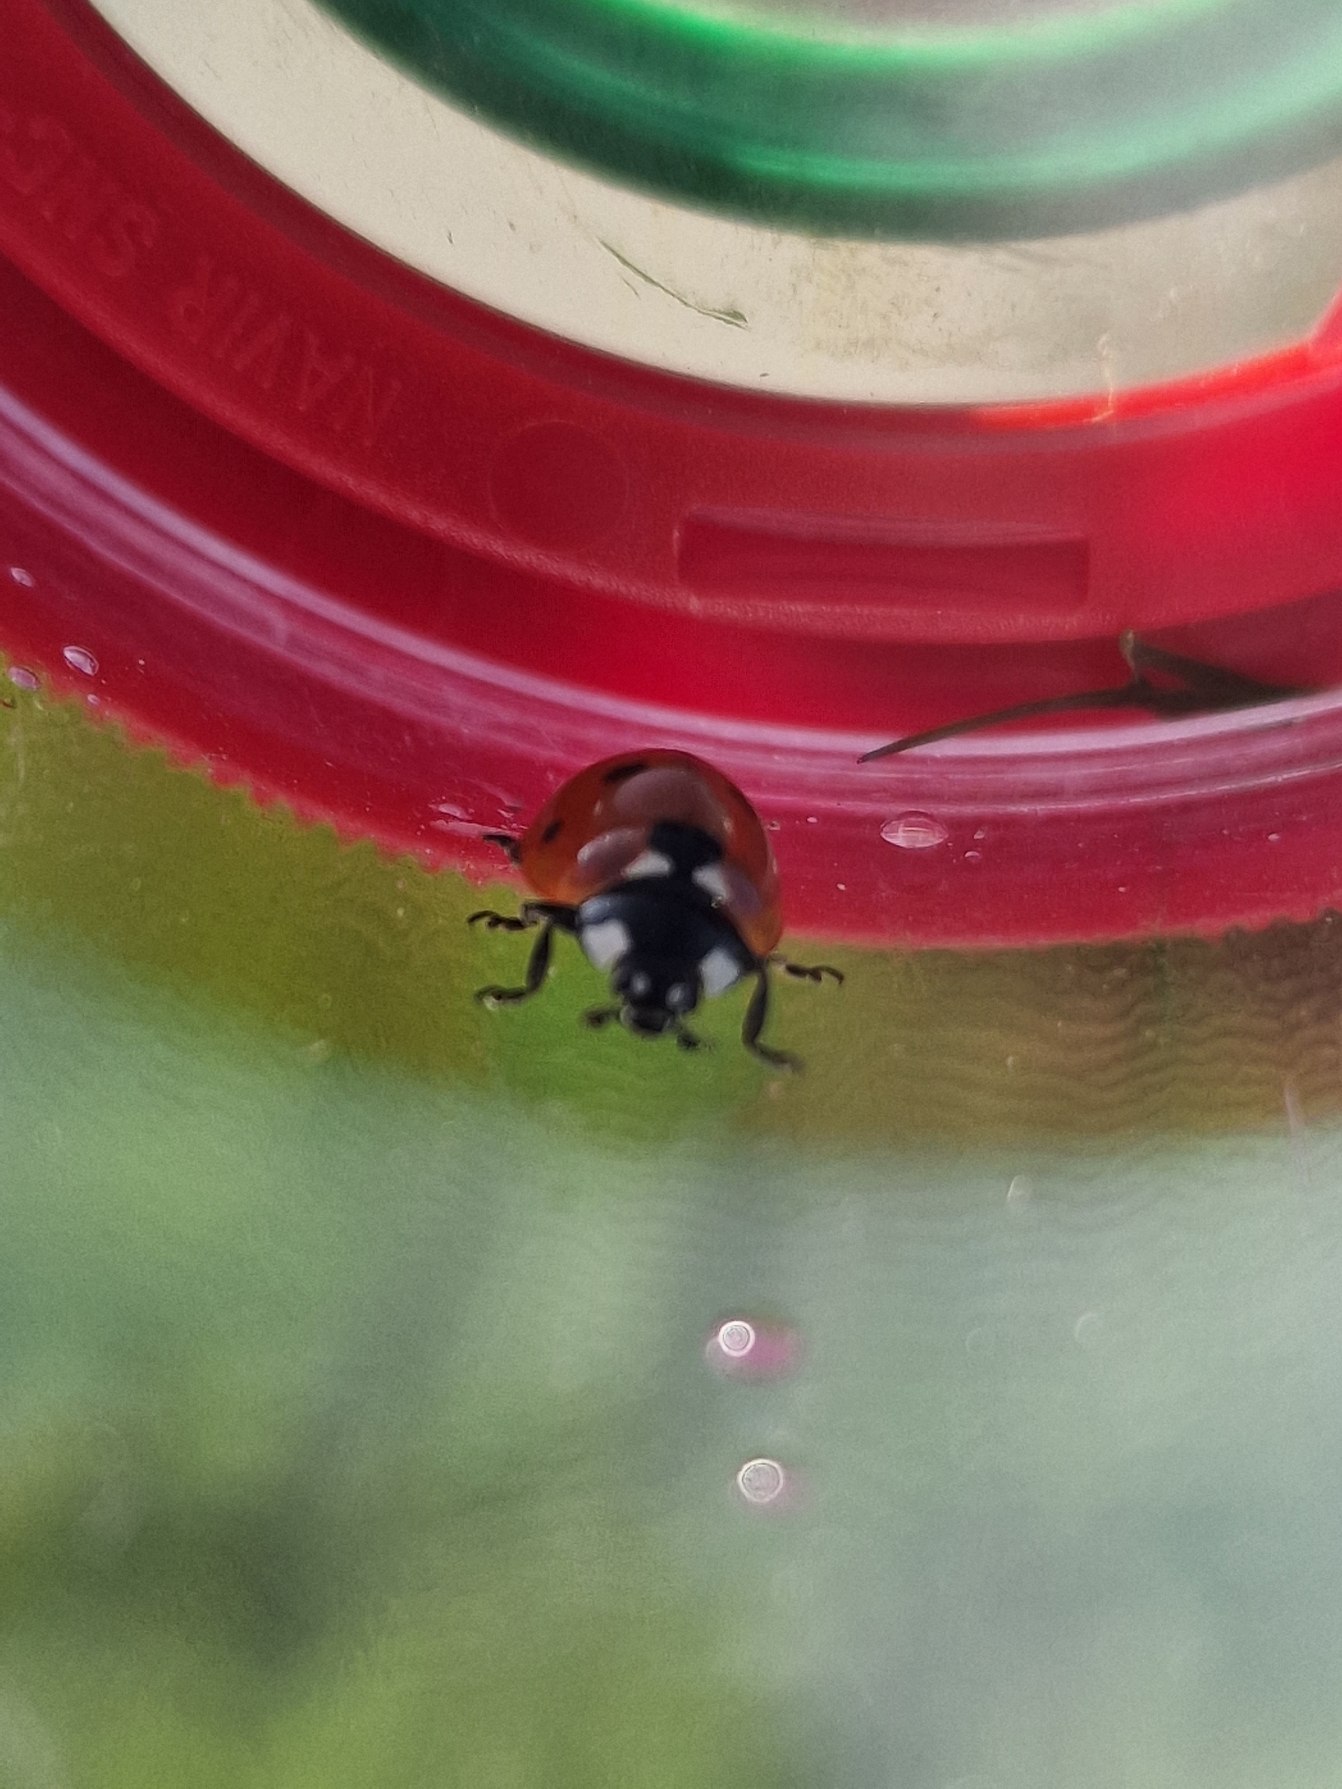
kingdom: Animalia
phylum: Arthropoda
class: Insecta
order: Coleoptera
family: Coccinellidae
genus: Coccinella
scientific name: Coccinella septempunctata
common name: Syvplettet mariehøne
